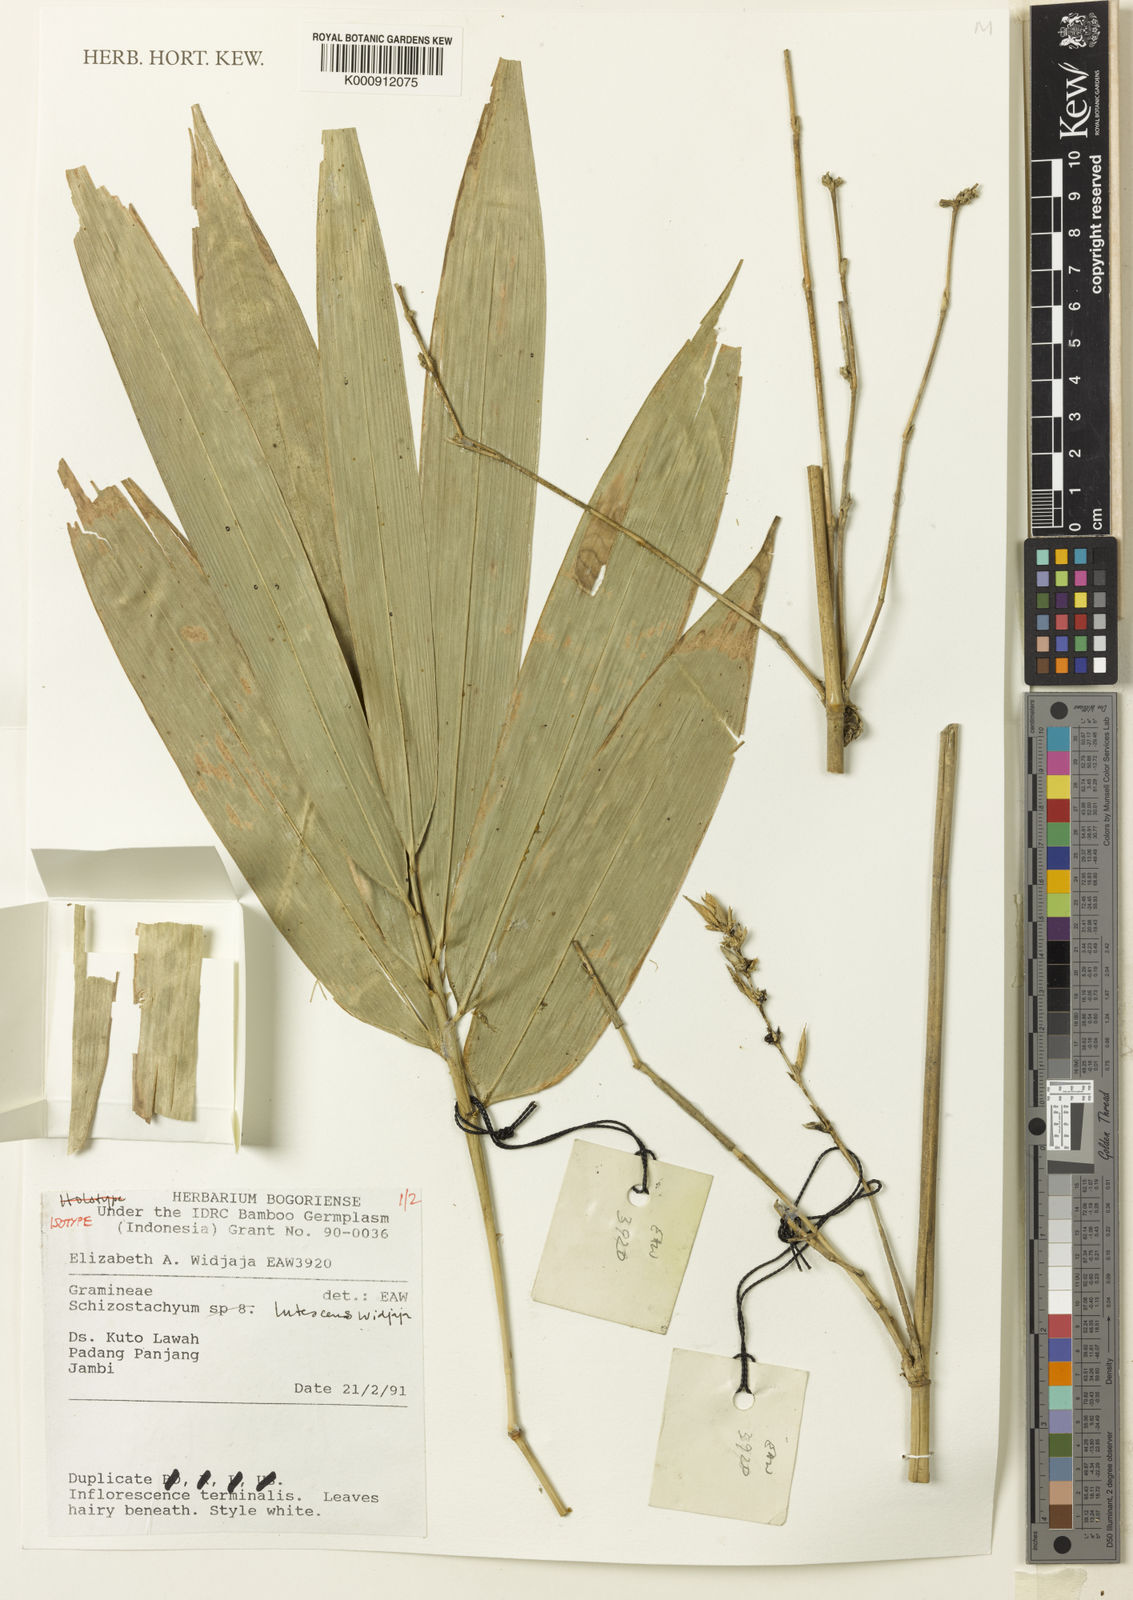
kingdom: Plantae
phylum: Tracheophyta
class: Liliopsida
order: Poales
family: Poaceae
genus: Schizostachyum
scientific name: Schizostachyum lutescens
